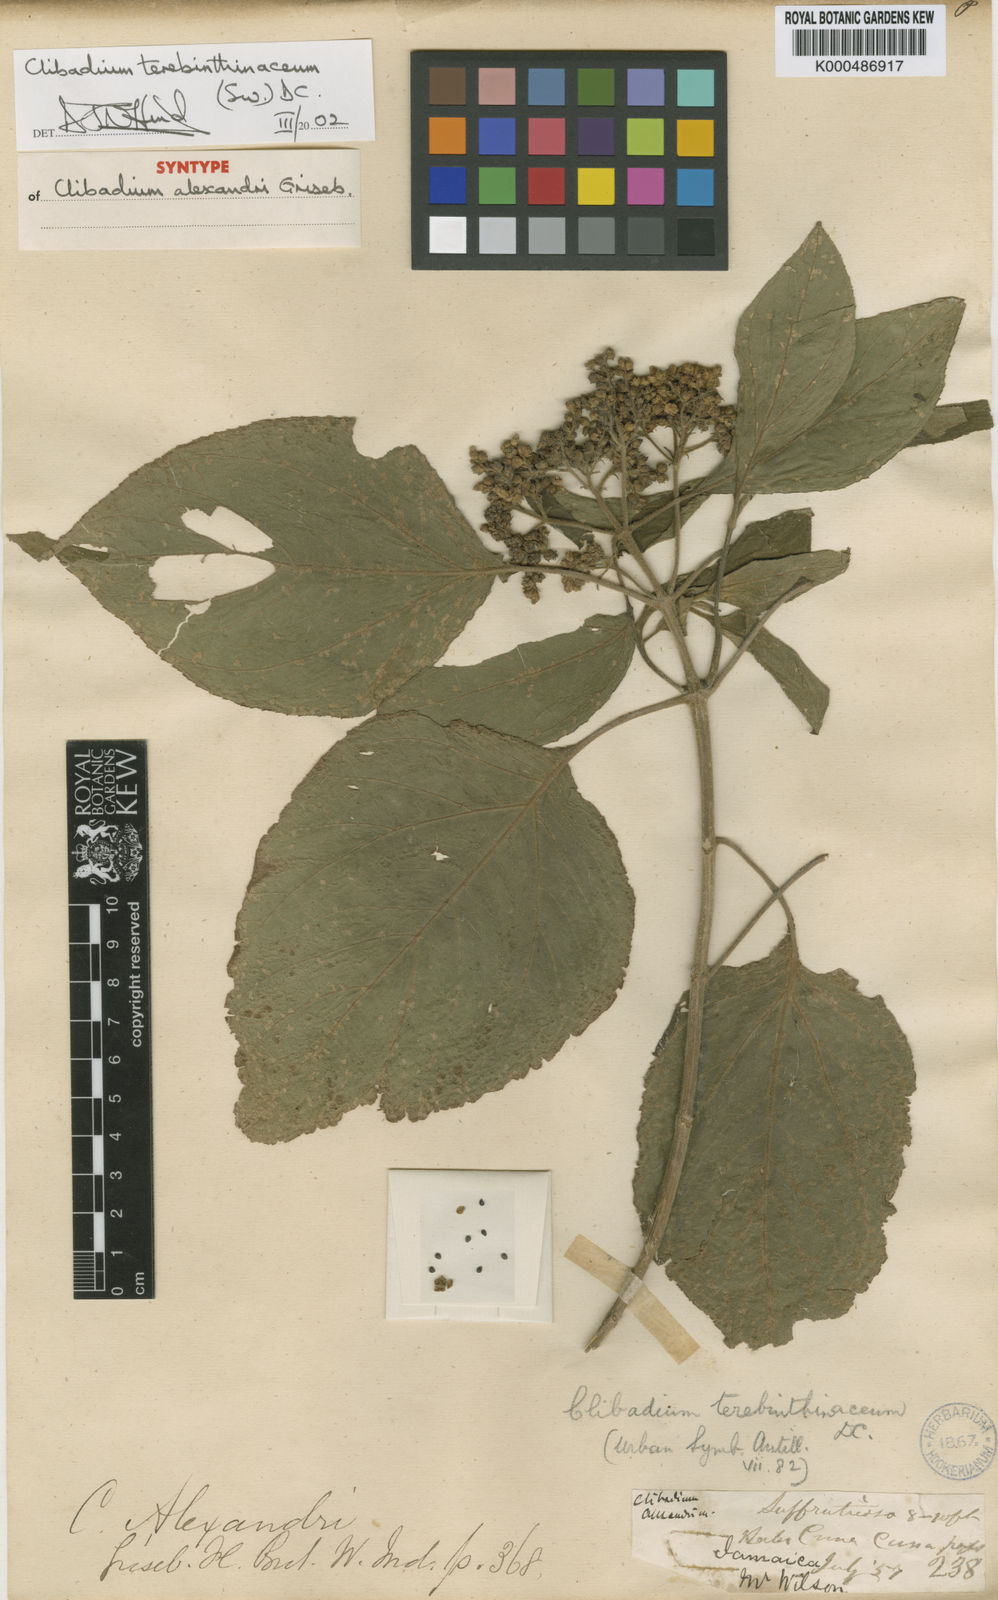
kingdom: Plantae
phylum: Tracheophyta
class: Magnoliopsida
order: Asterales
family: Asteraceae
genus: Clibadium
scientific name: Clibadium terebinthinaceum
